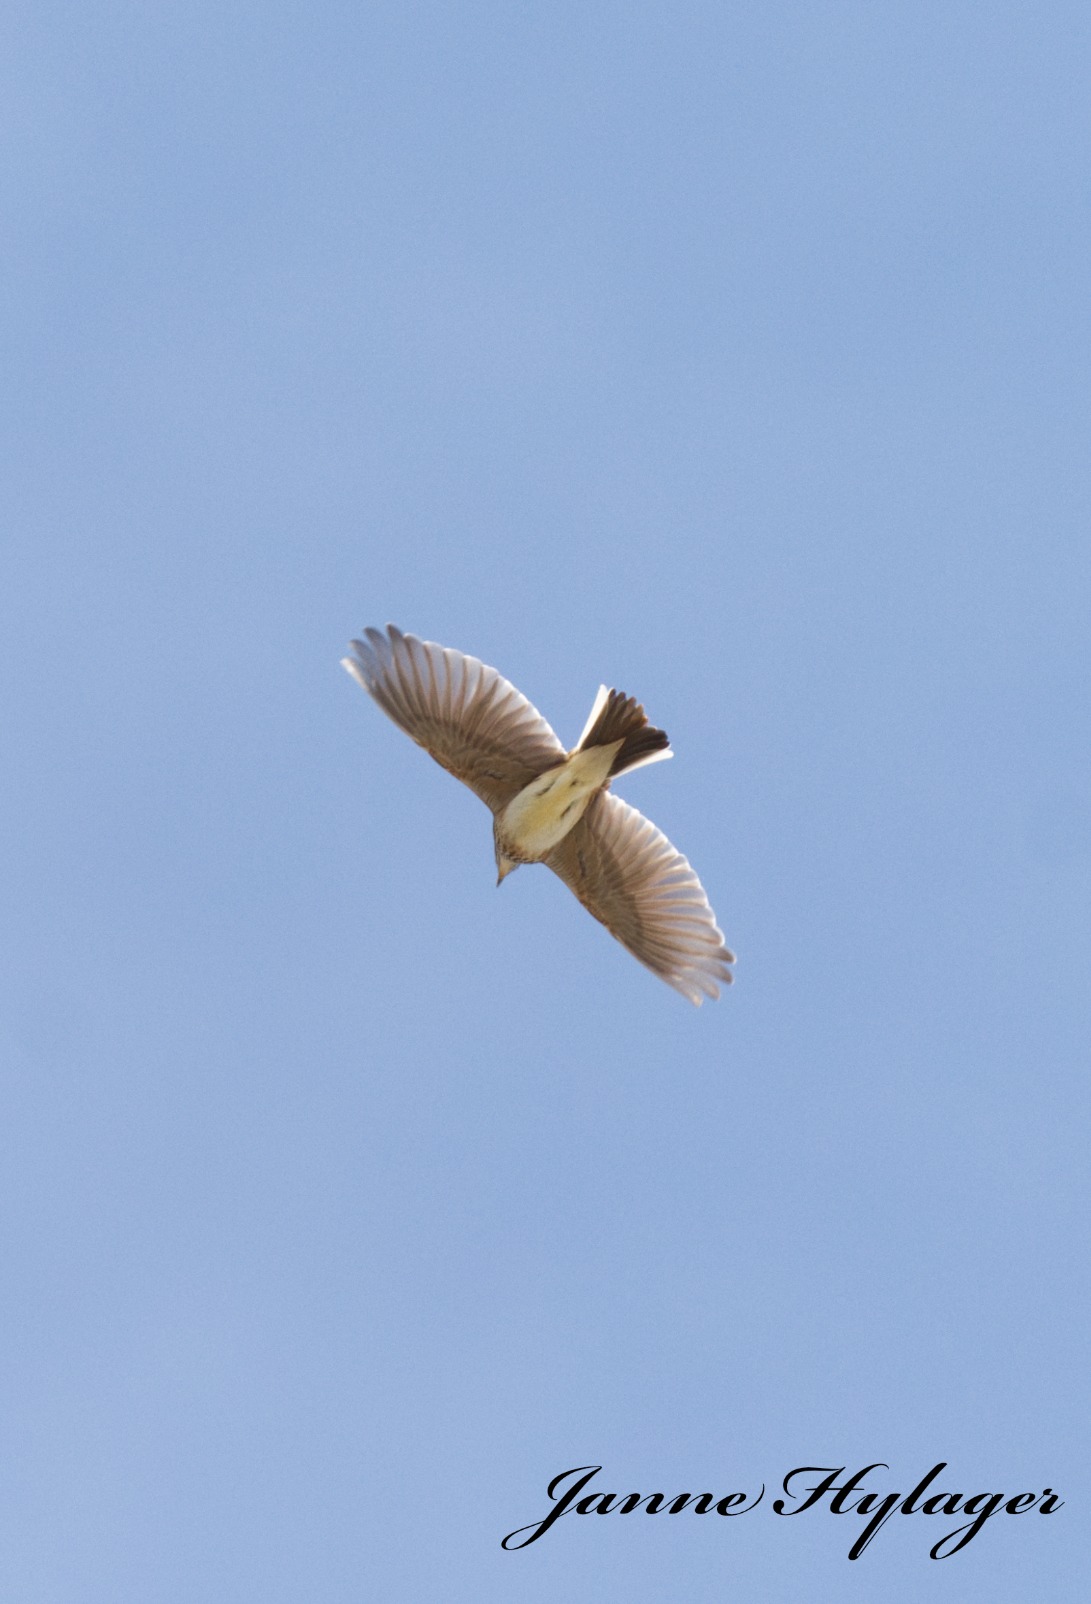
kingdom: Animalia
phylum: Chordata
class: Aves
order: Passeriformes
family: Alaudidae
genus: Alauda
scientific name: Alauda arvensis
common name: Sanglærke
